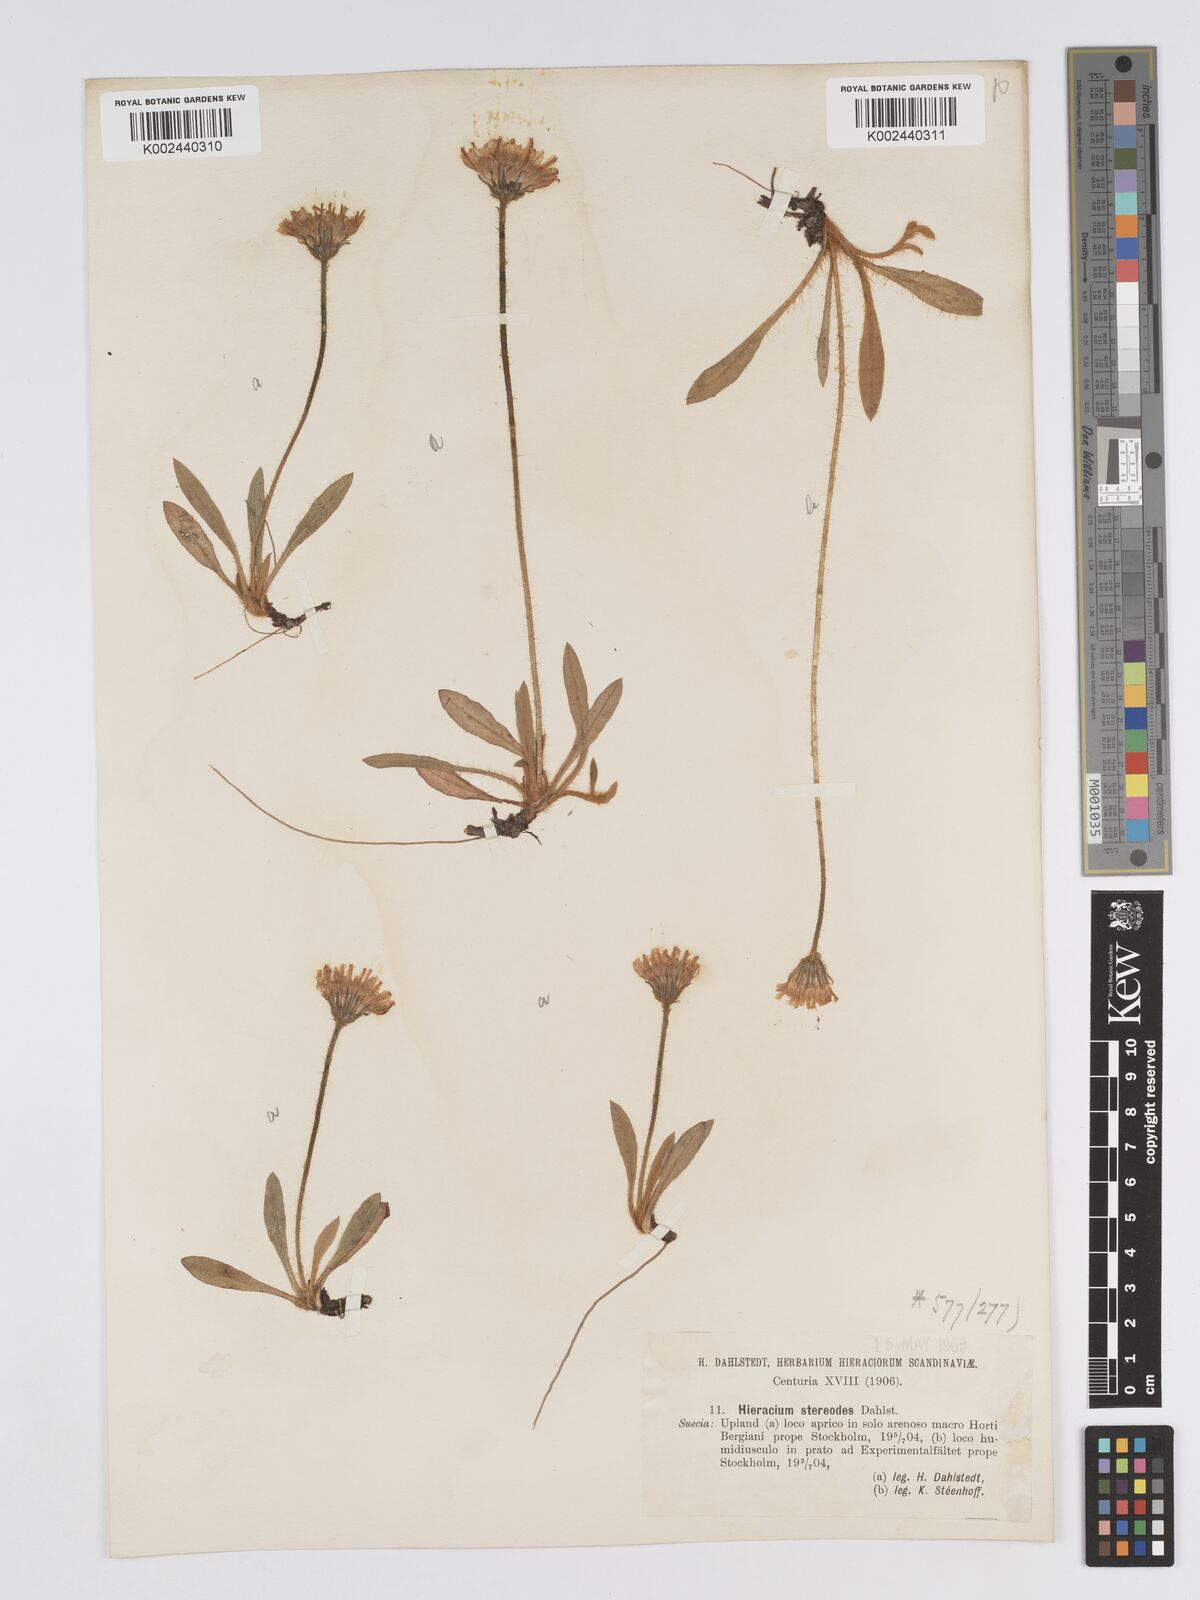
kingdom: Plantae
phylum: Tracheophyta
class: Magnoliopsida
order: Asterales
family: Asteraceae
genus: Pilosella
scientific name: Pilosella officinarum
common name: Mouse-ear hawkweed
